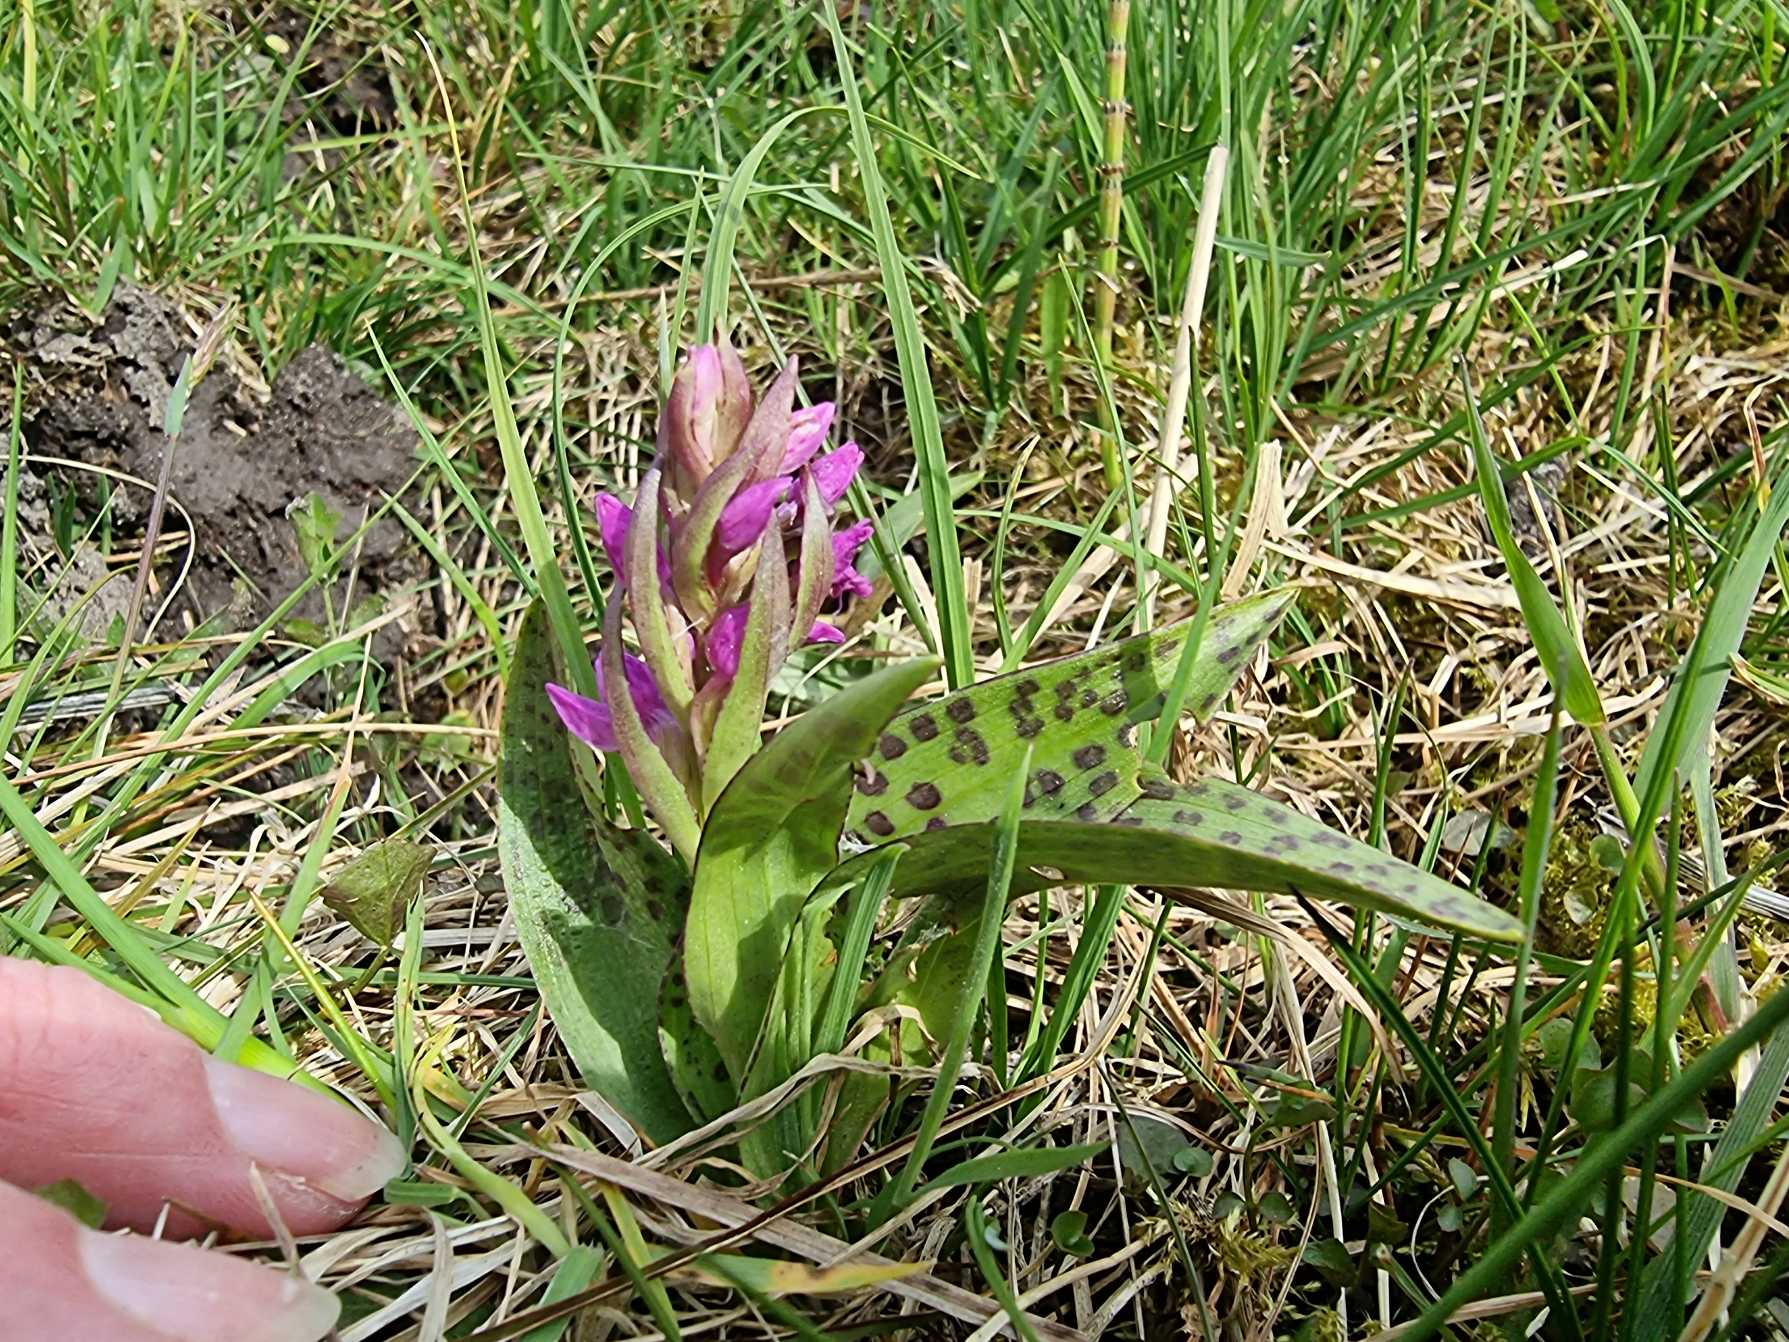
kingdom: Plantae
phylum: Tracheophyta
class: Liliopsida
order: Asparagales
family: Orchidaceae
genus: Dactylorhiza
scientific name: Dactylorhiza majalis
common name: Maj-gøgeurt
